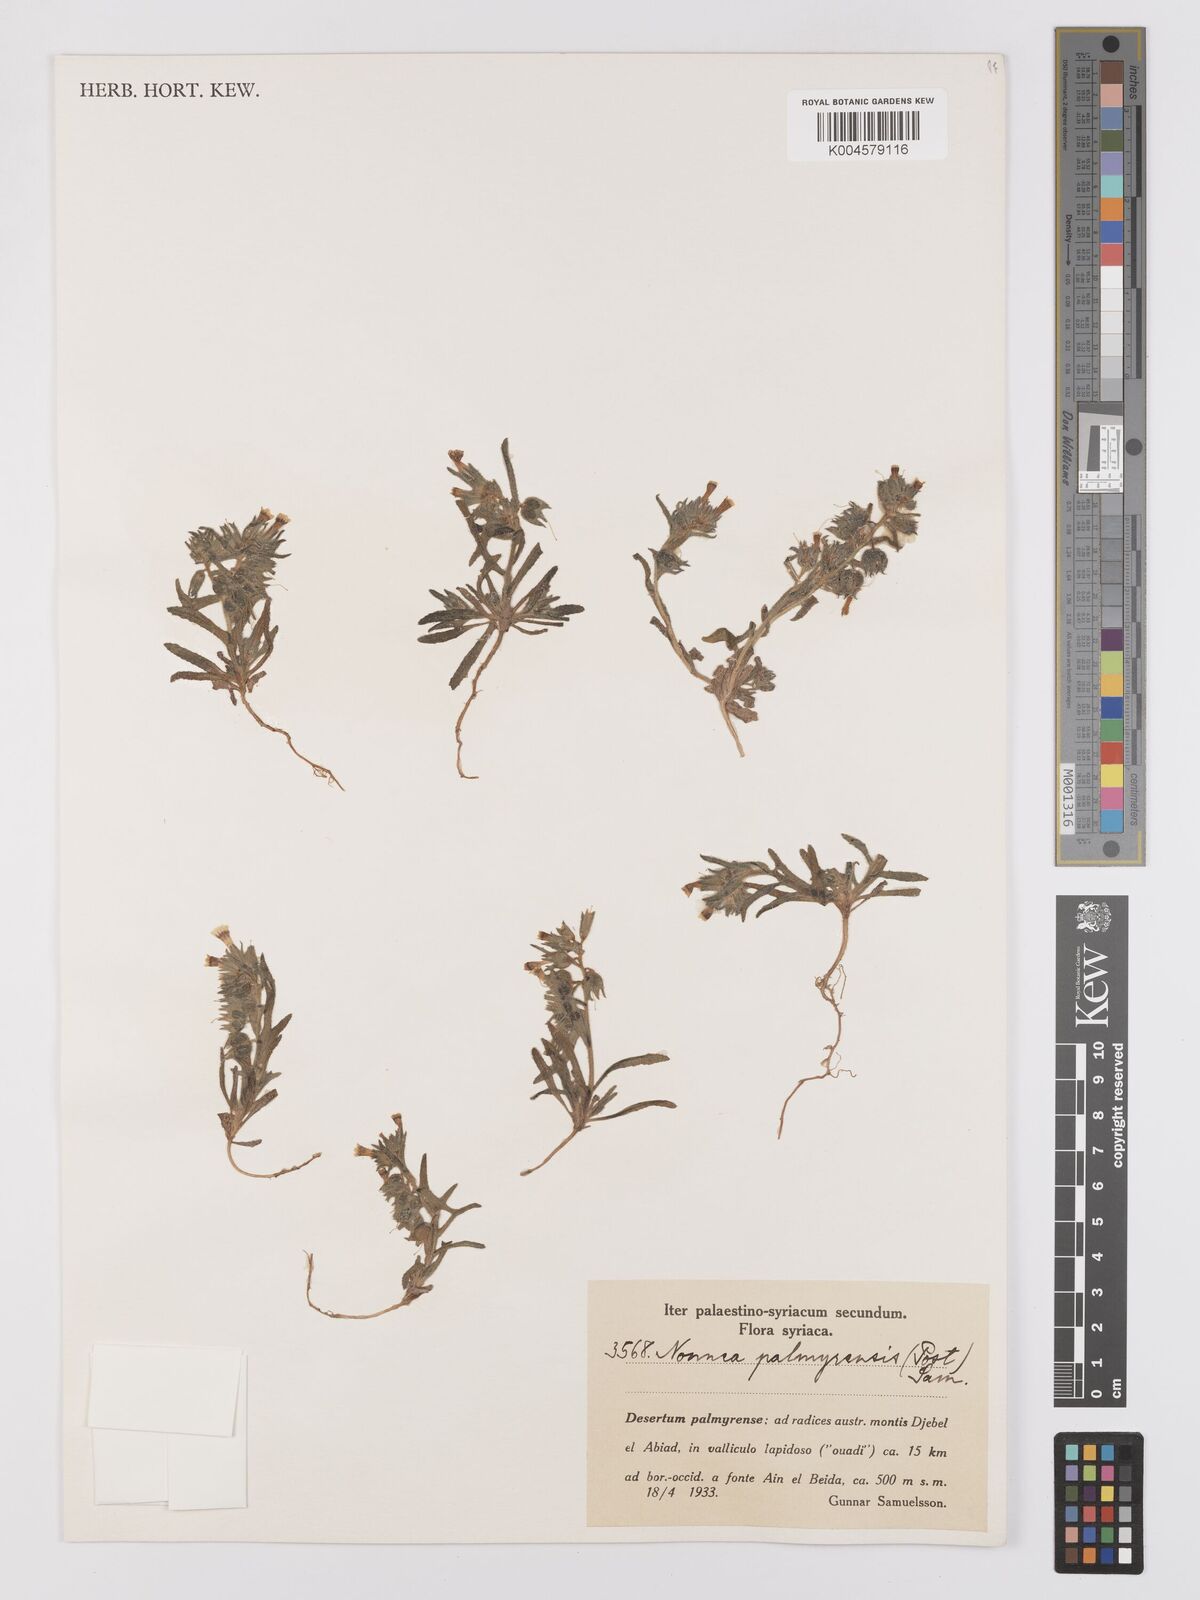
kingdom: Plantae
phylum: Tracheophyta
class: Magnoliopsida
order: Boraginales
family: Boraginaceae
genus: Nonea
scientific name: Nonea palmyrensis
